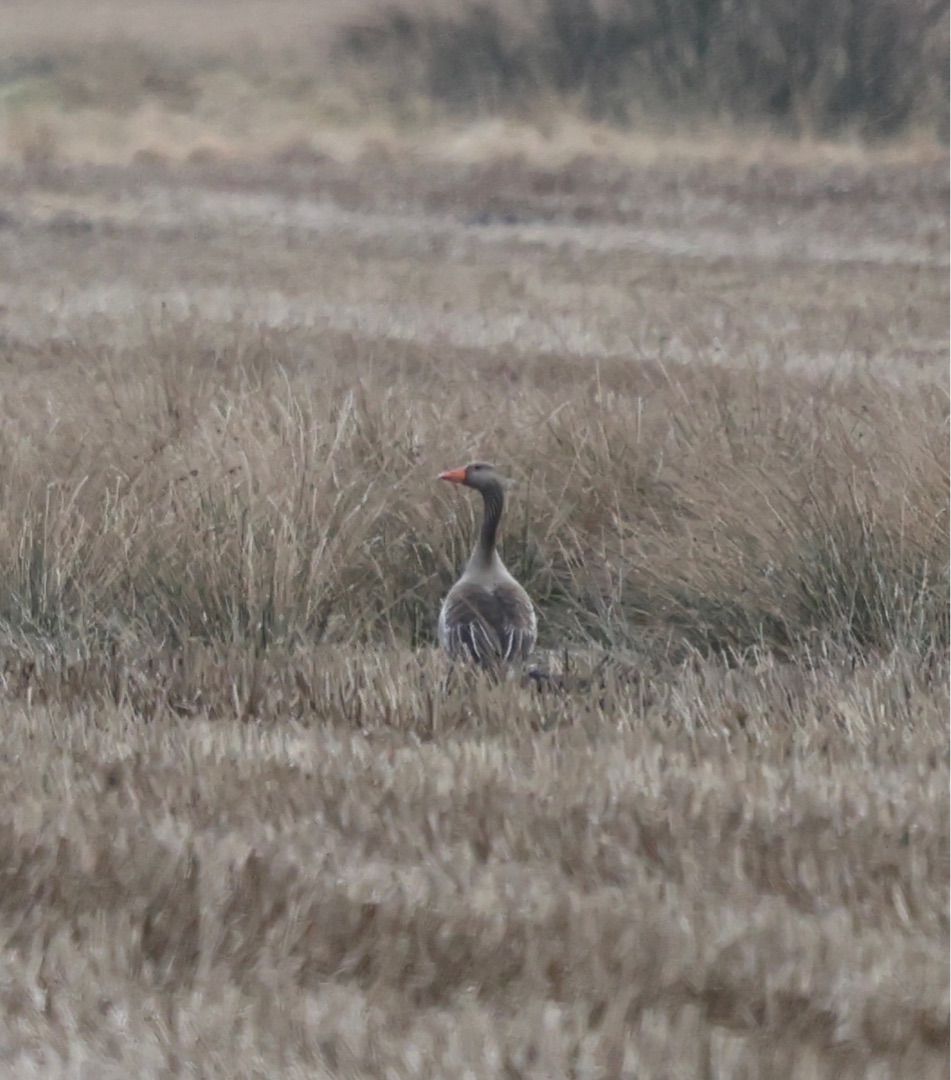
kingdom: Animalia
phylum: Chordata
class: Aves
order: Anseriformes
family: Anatidae
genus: Anser
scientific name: Anser anser
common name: Grågås
